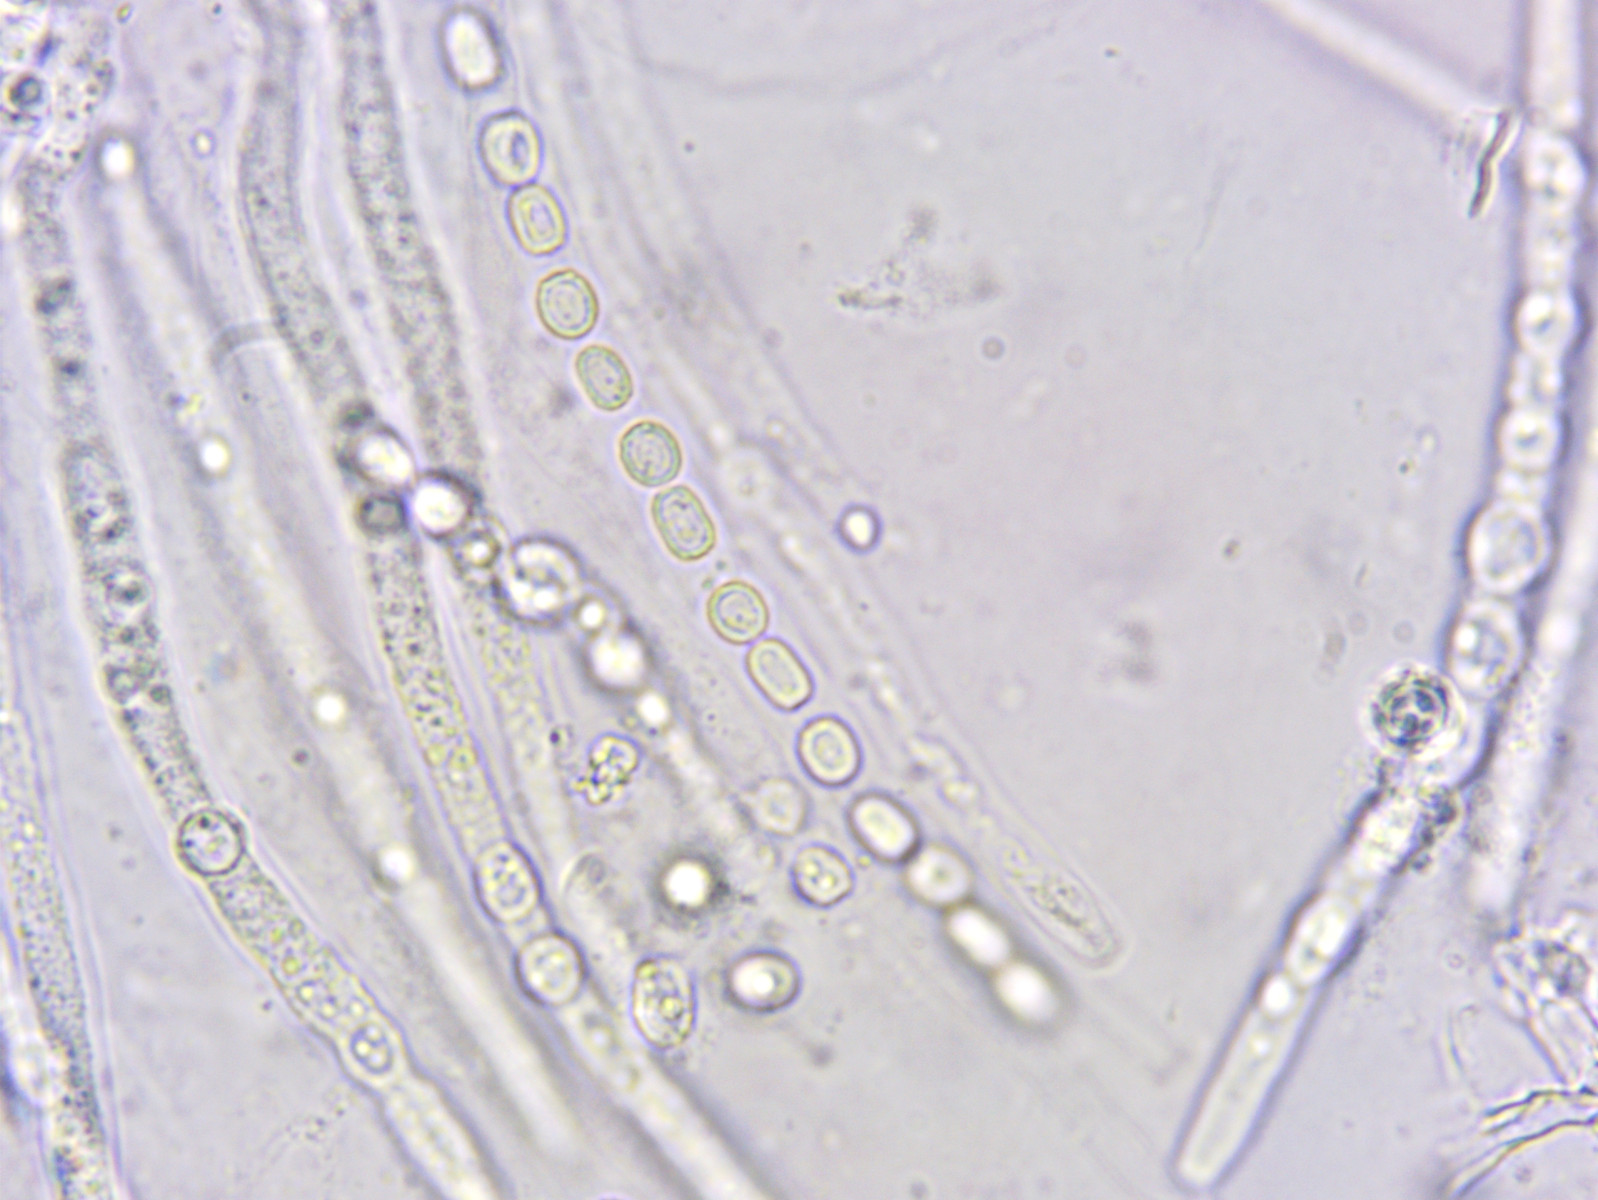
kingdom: Fungi
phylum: Ascomycota
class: Sordariomycetes
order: Hypocreales
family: Hypocreaceae
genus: Trichoderma
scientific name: Trichoderma europaeum
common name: rosabrun kødkerne
